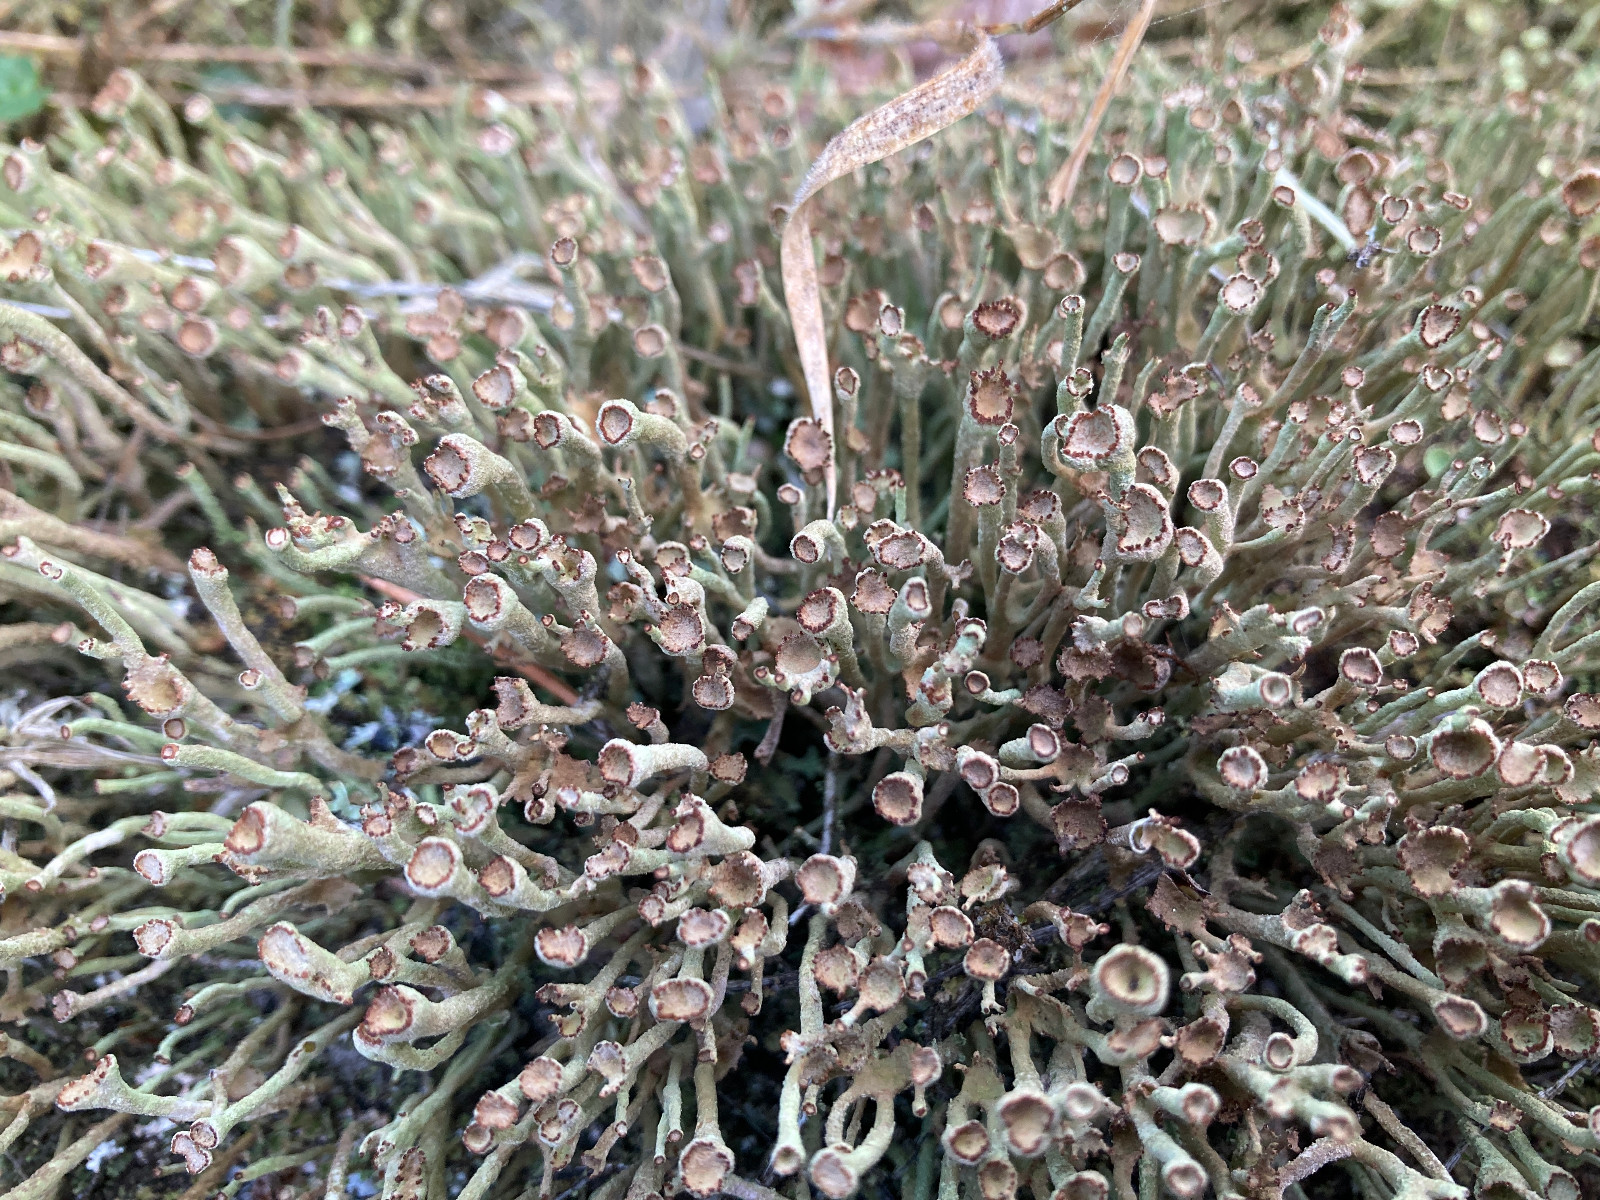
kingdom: Fungi
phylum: Ascomycota
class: Lecanoromycetes
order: Lecanorales
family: Cladoniaceae
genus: Cladonia
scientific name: Cladonia ochrochlora
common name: stød-bægerlav
